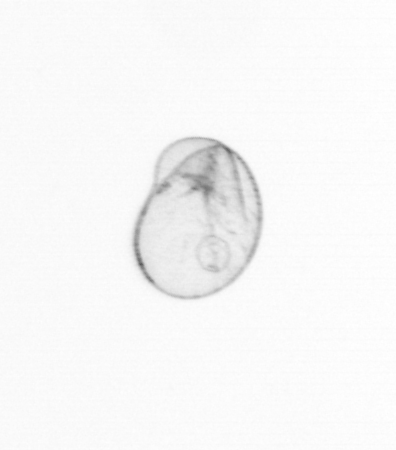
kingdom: Chromista
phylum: Myzozoa
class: Dinophyceae
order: Noctilucales
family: Noctilucaceae
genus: Noctiluca
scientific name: Noctiluca scintillans
